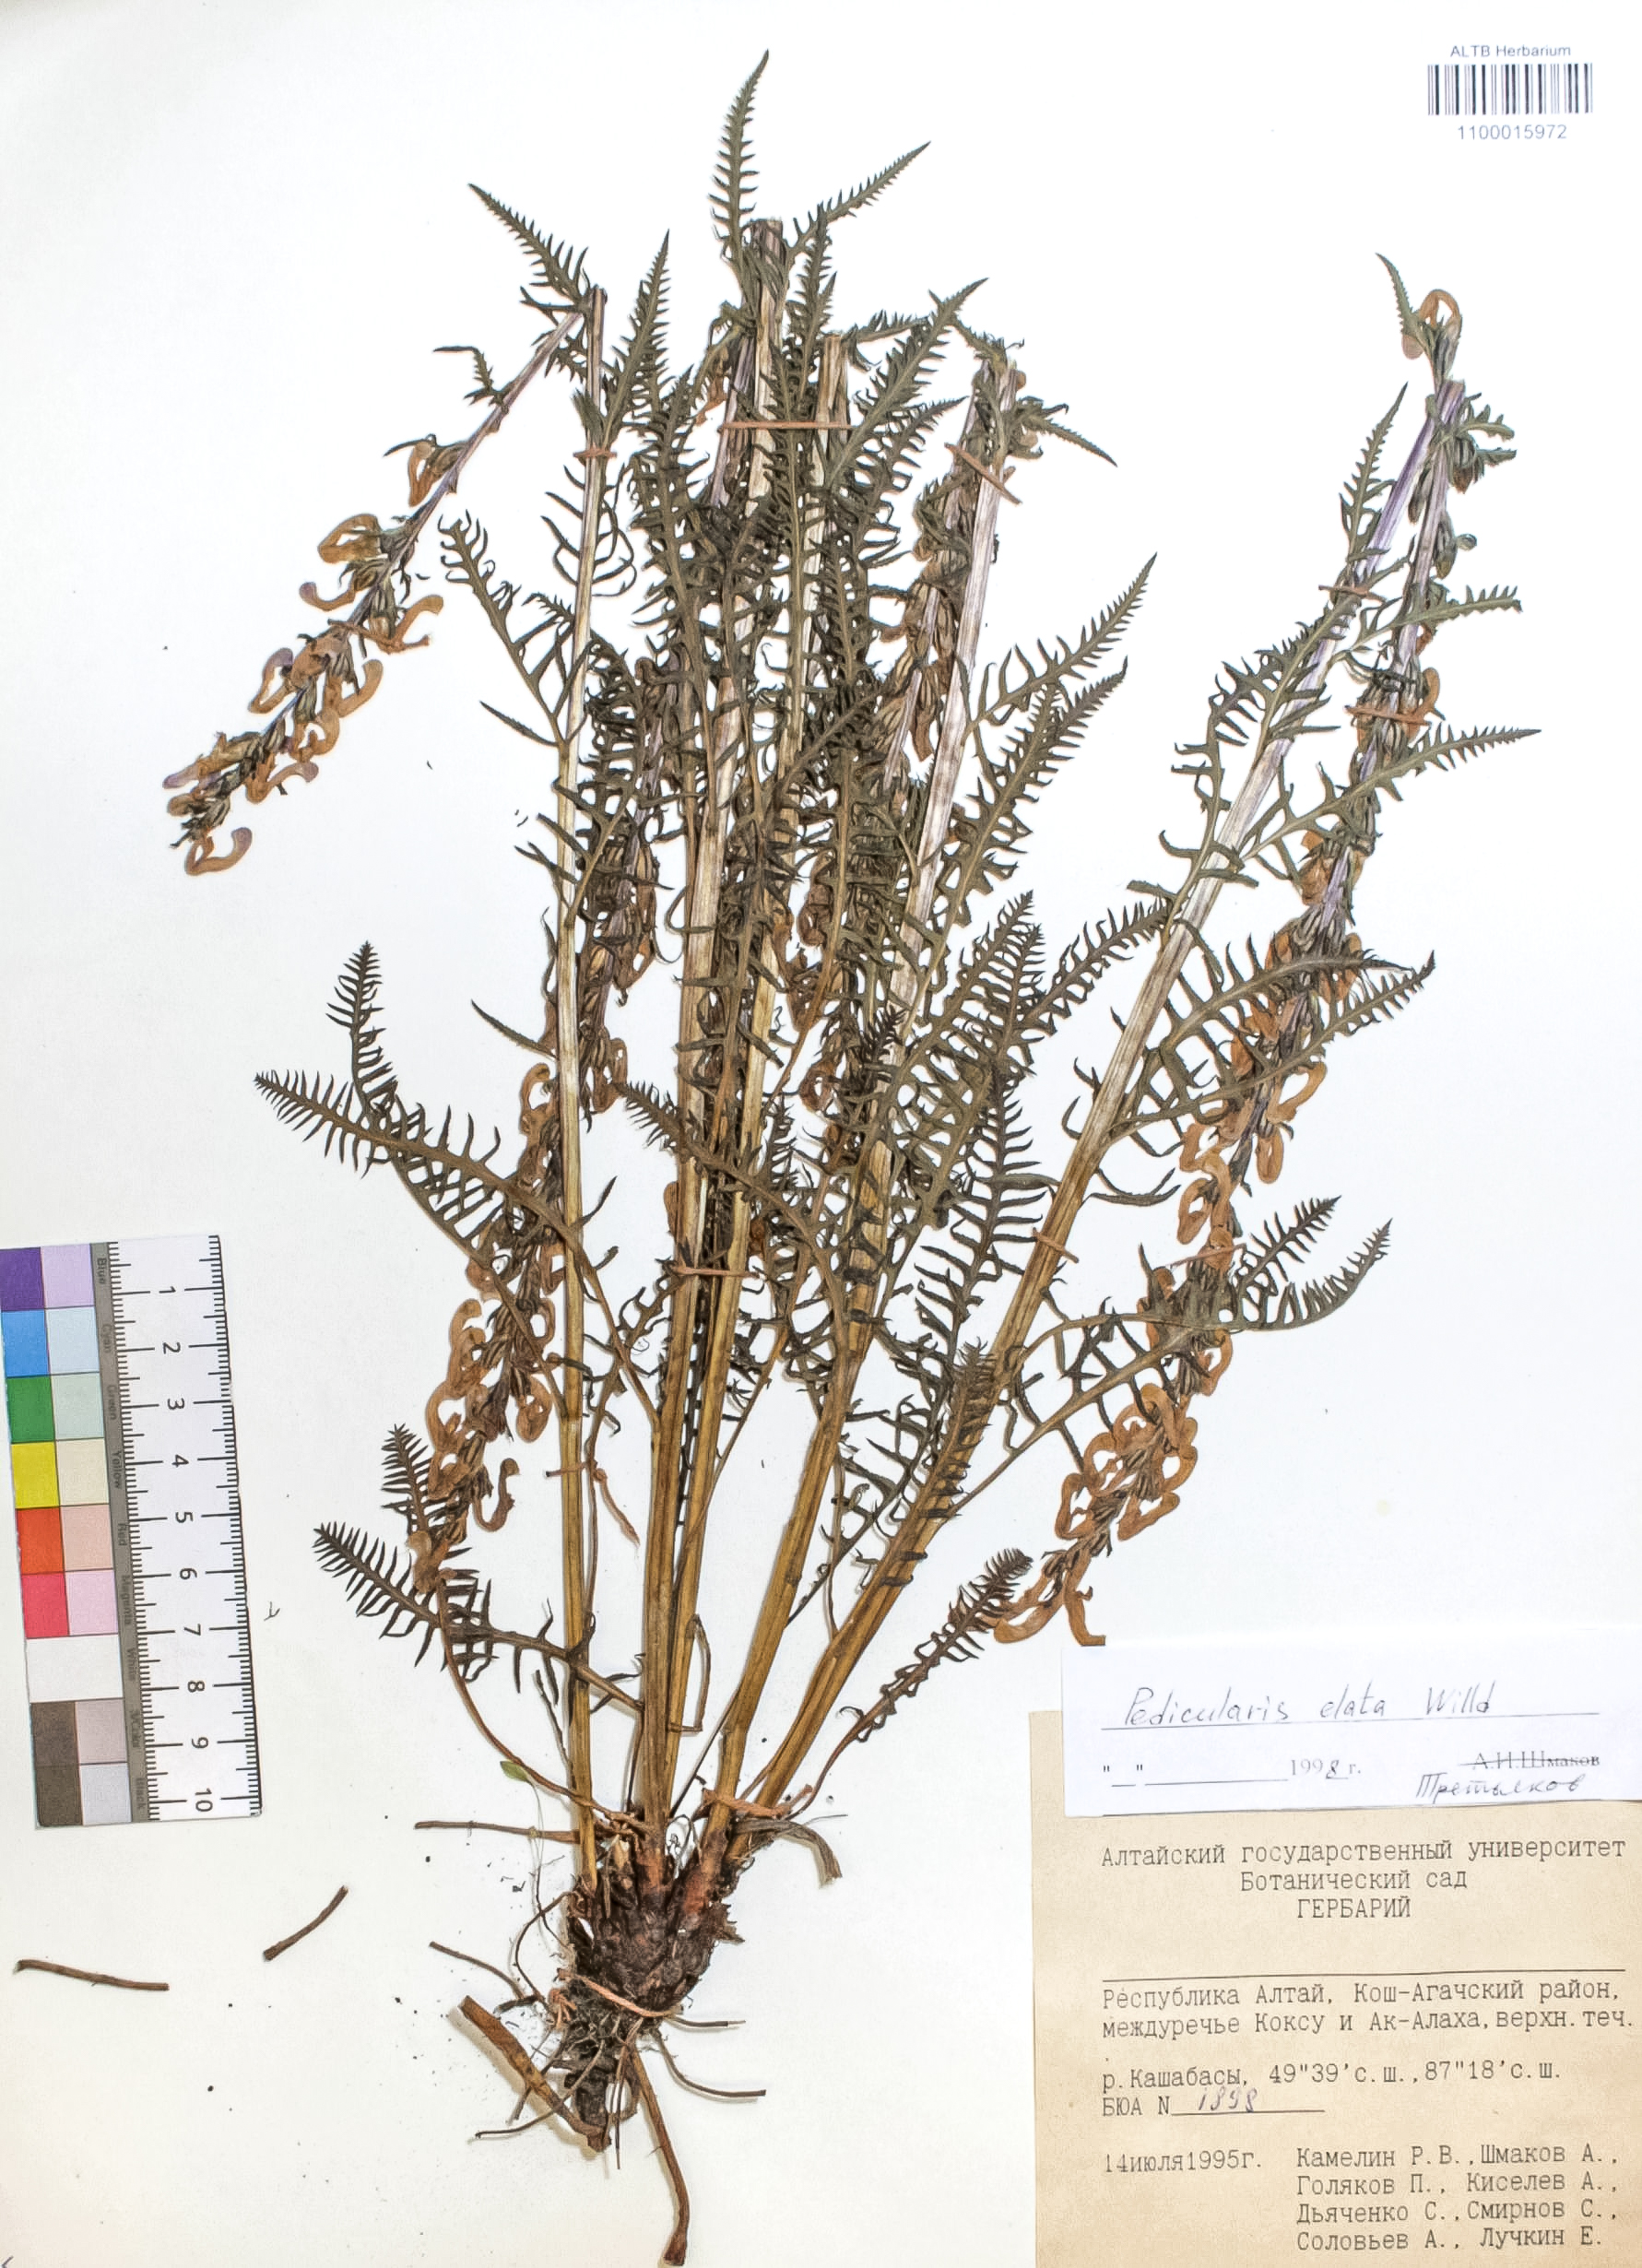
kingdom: Plantae
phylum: Tracheophyta
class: Magnoliopsida
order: Lamiales
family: Orobanchaceae
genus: Pedicularis
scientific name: Pedicularis elata
